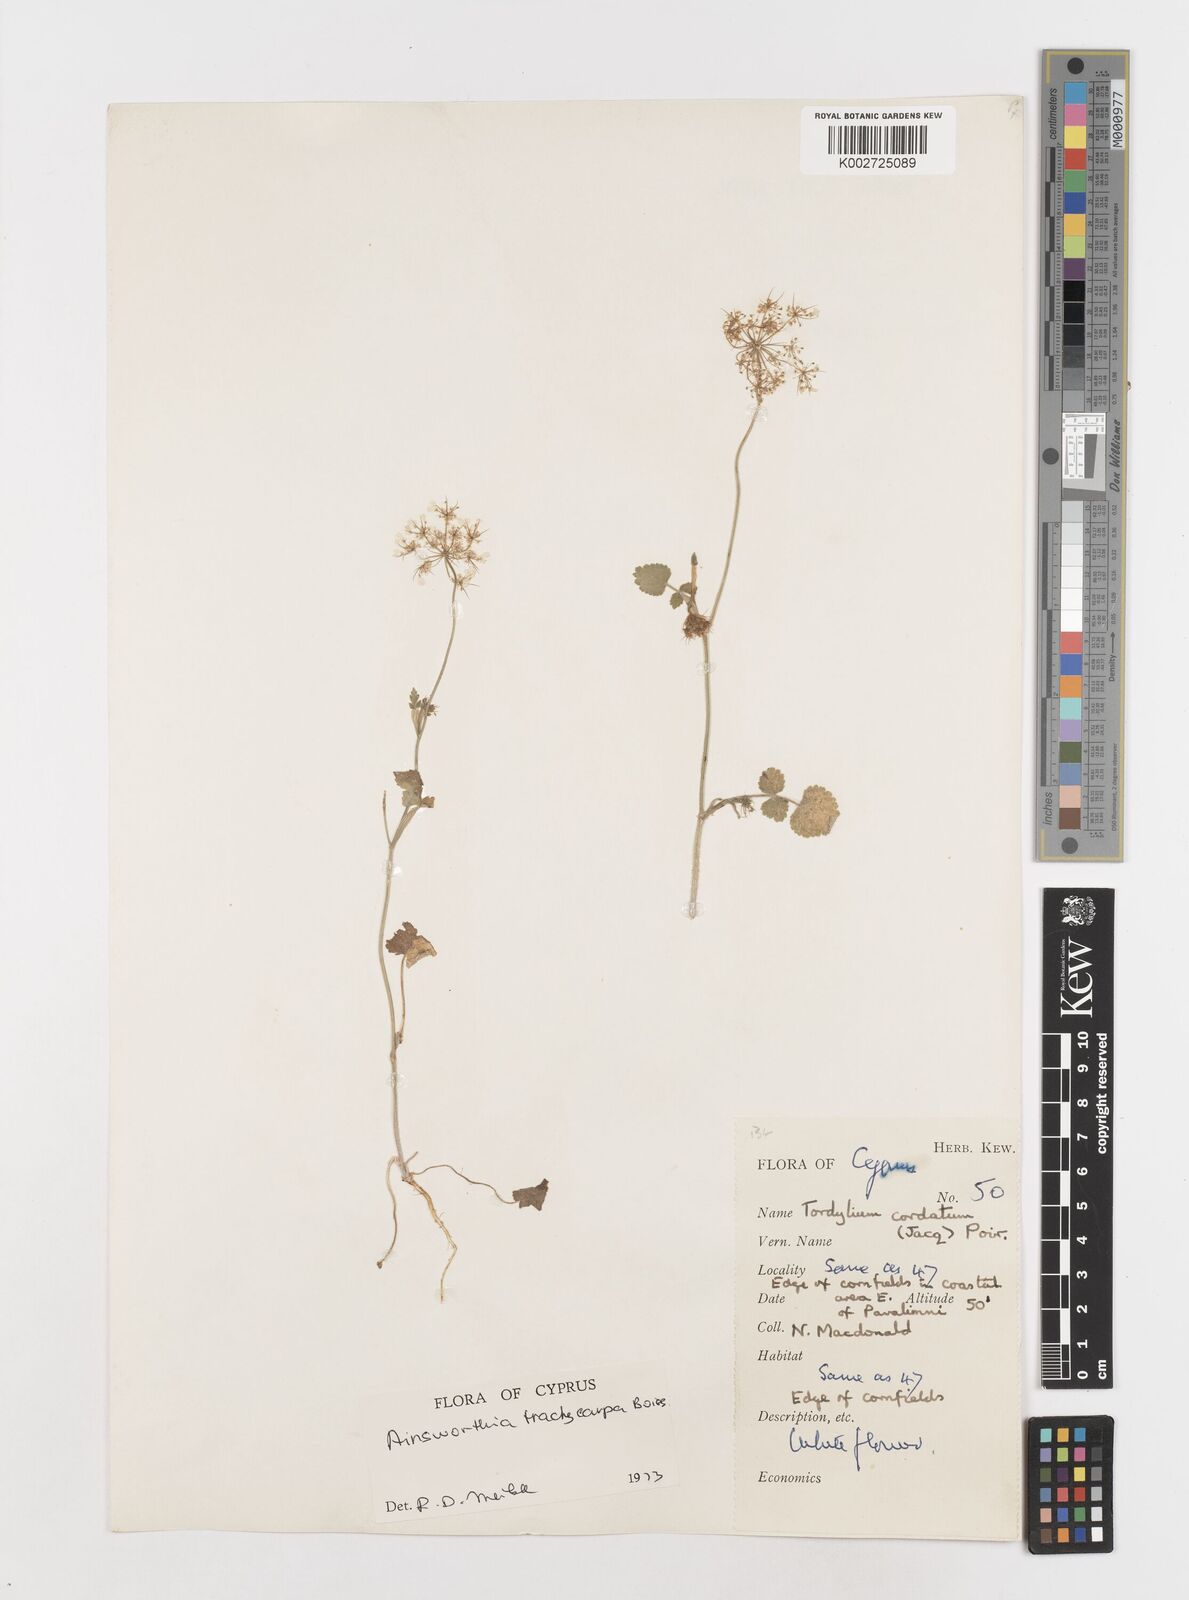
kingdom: Plantae
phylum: Tracheophyta
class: Magnoliopsida
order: Apiales
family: Apiaceae
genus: Ainsworthia
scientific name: Ainsworthia cordata
